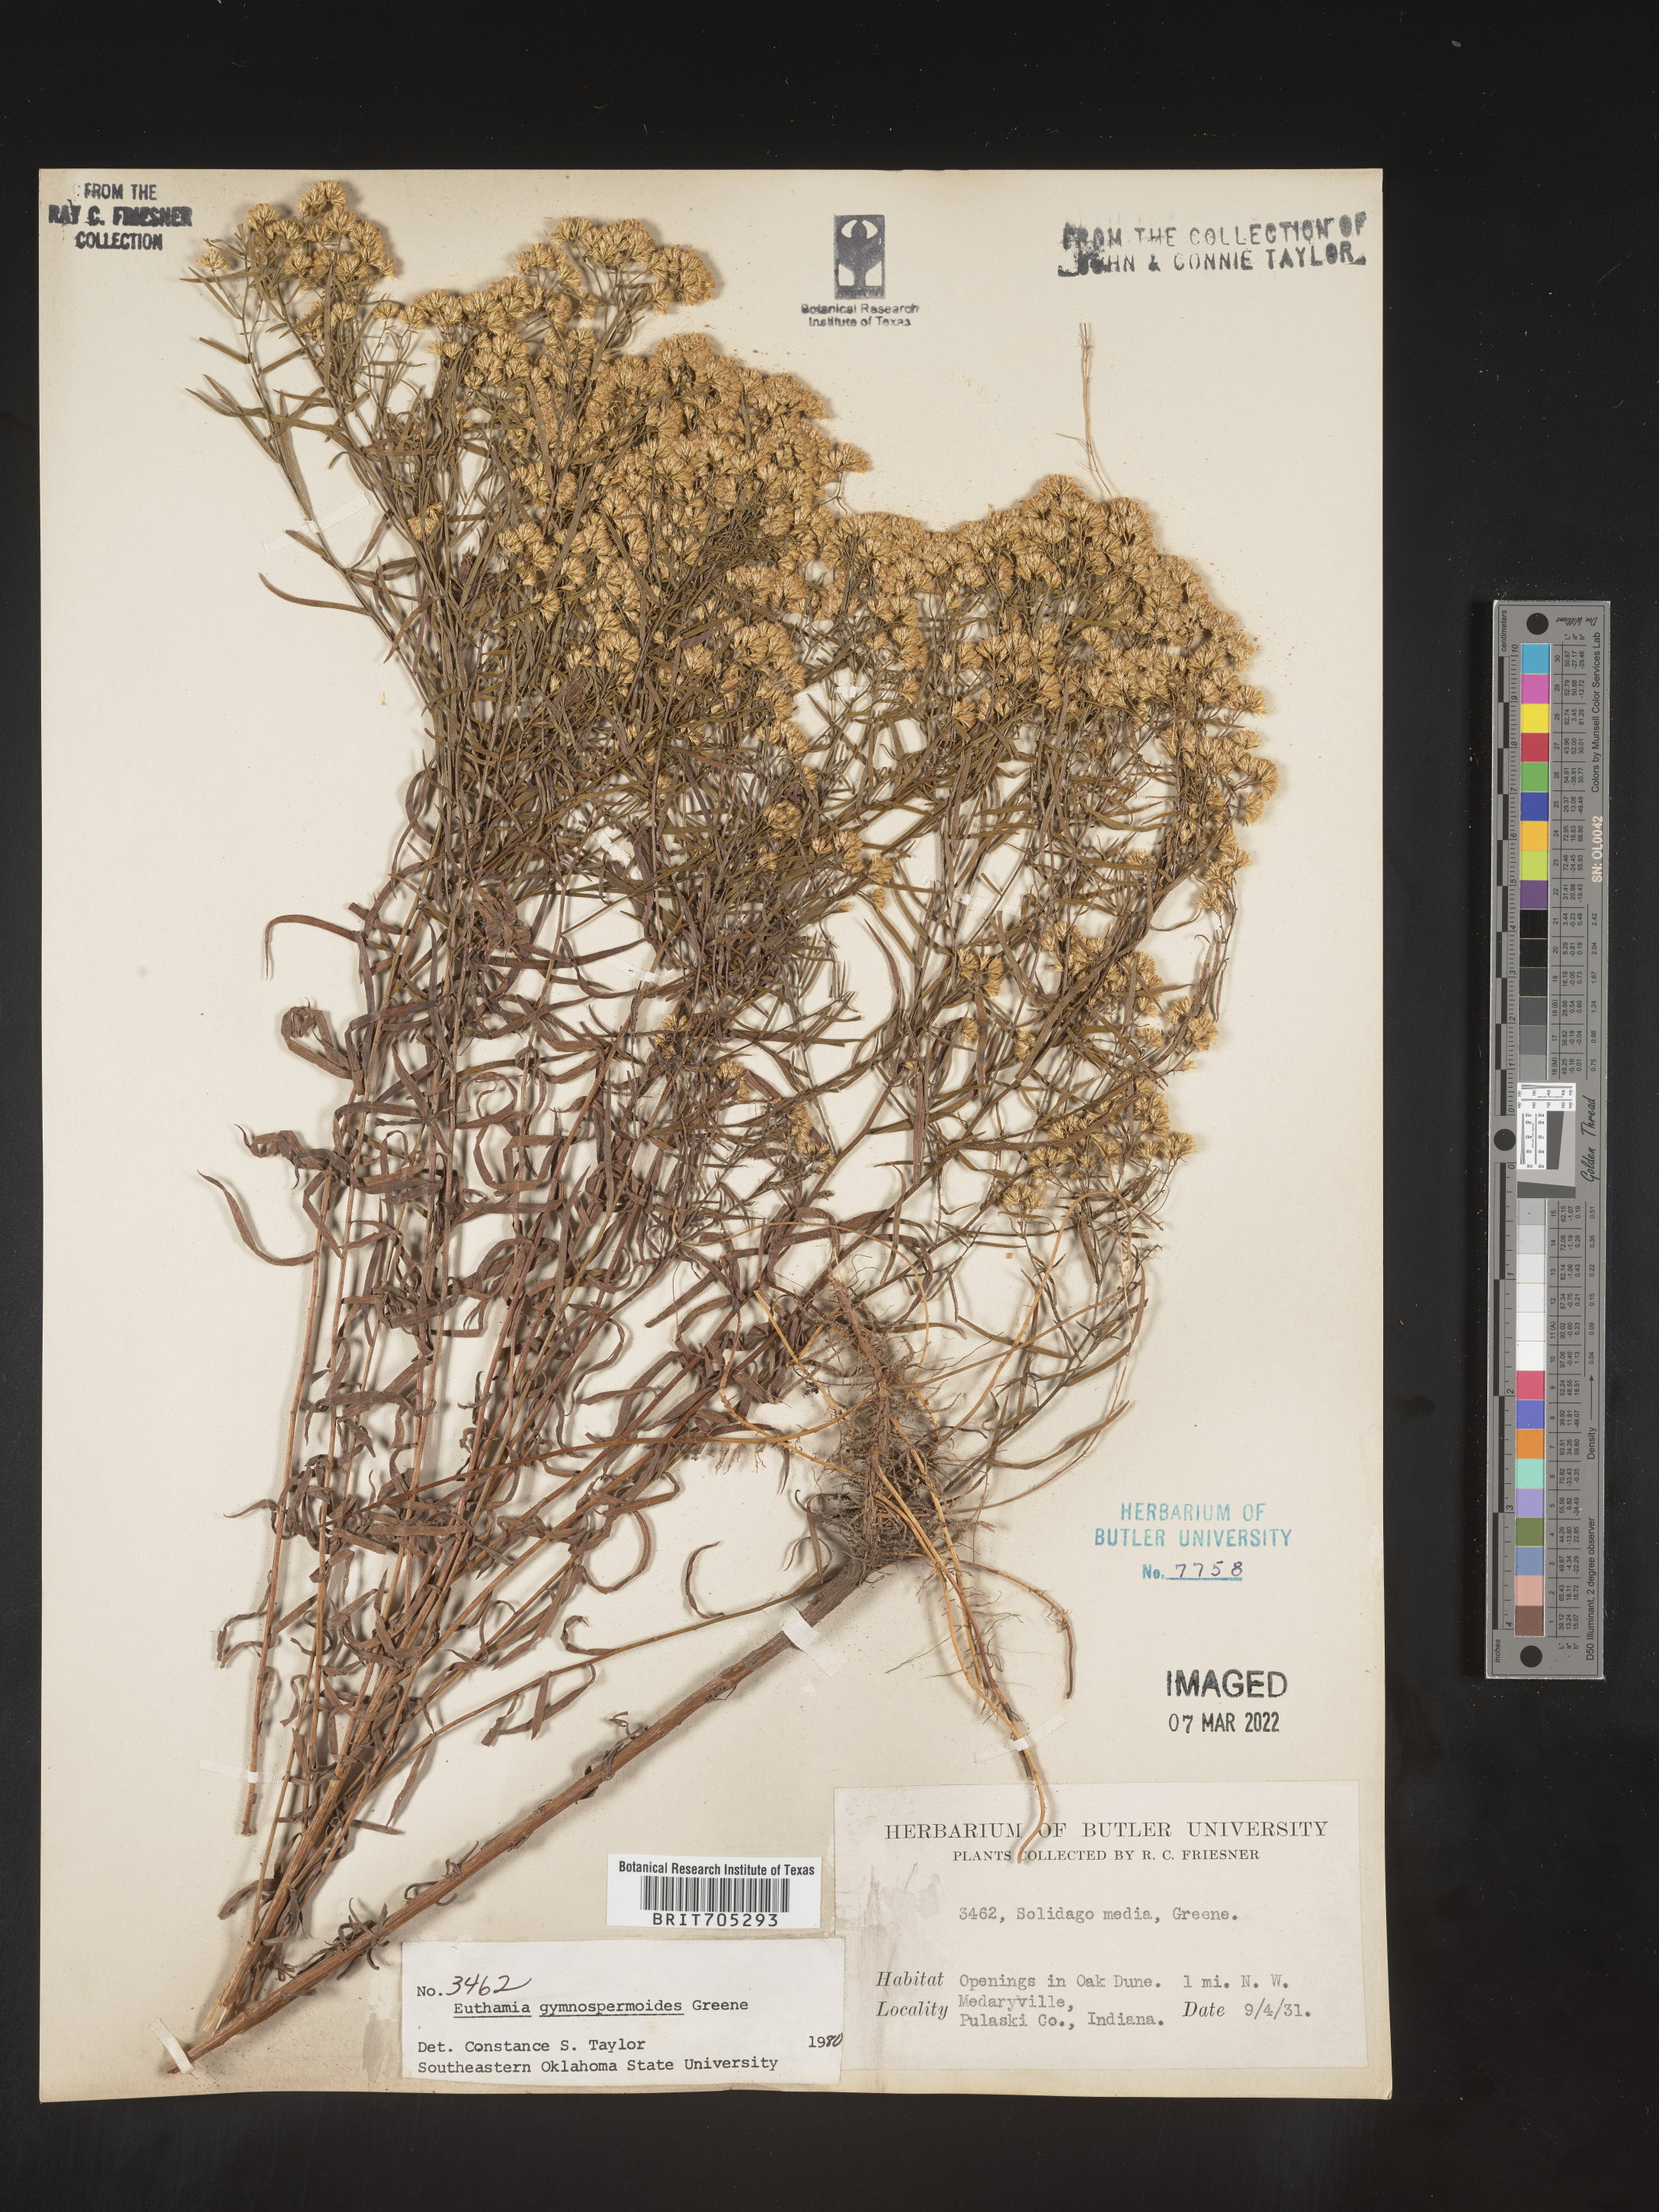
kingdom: Plantae
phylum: Tracheophyta
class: Magnoliopsida
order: Asterales
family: Asteraceae
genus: Euthamia
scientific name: Euthamia gymnospermoides
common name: Great plains goldentop
